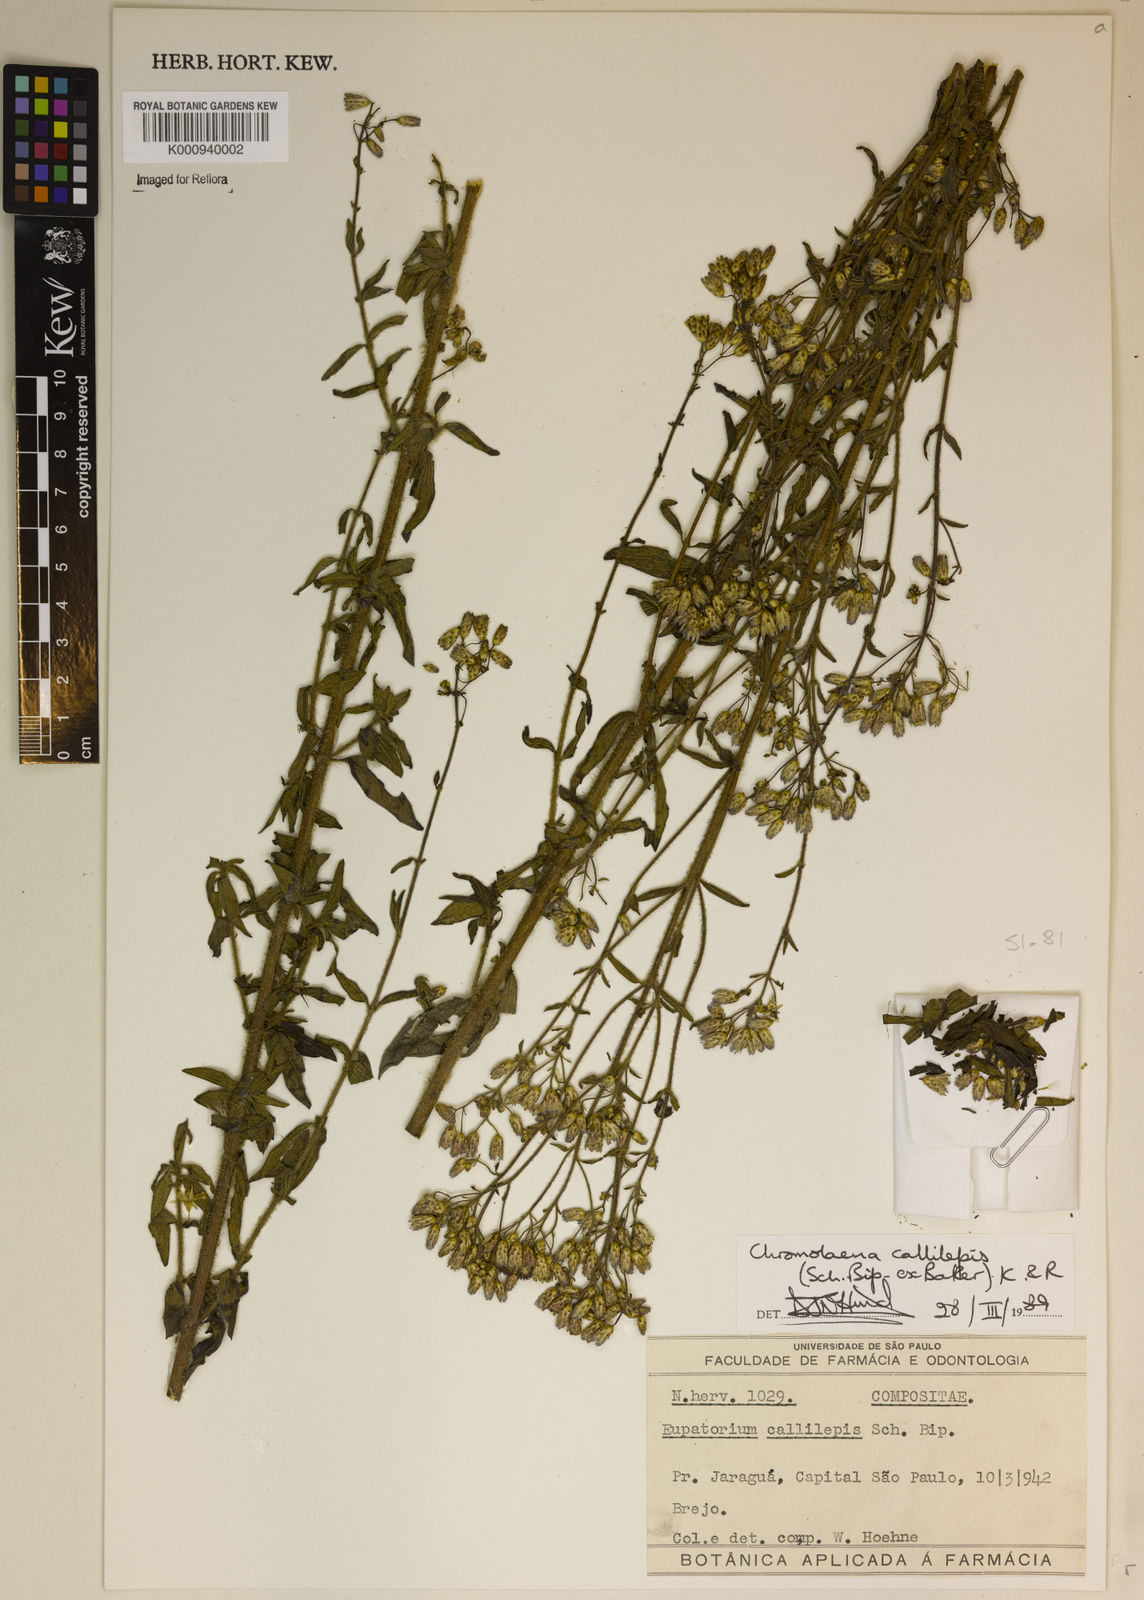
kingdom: Plantae
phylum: Tracheophyta
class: Magnoliopsida
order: Asterales
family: Asteraceae
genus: Chromolaena
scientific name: Chromolaena callilepis
